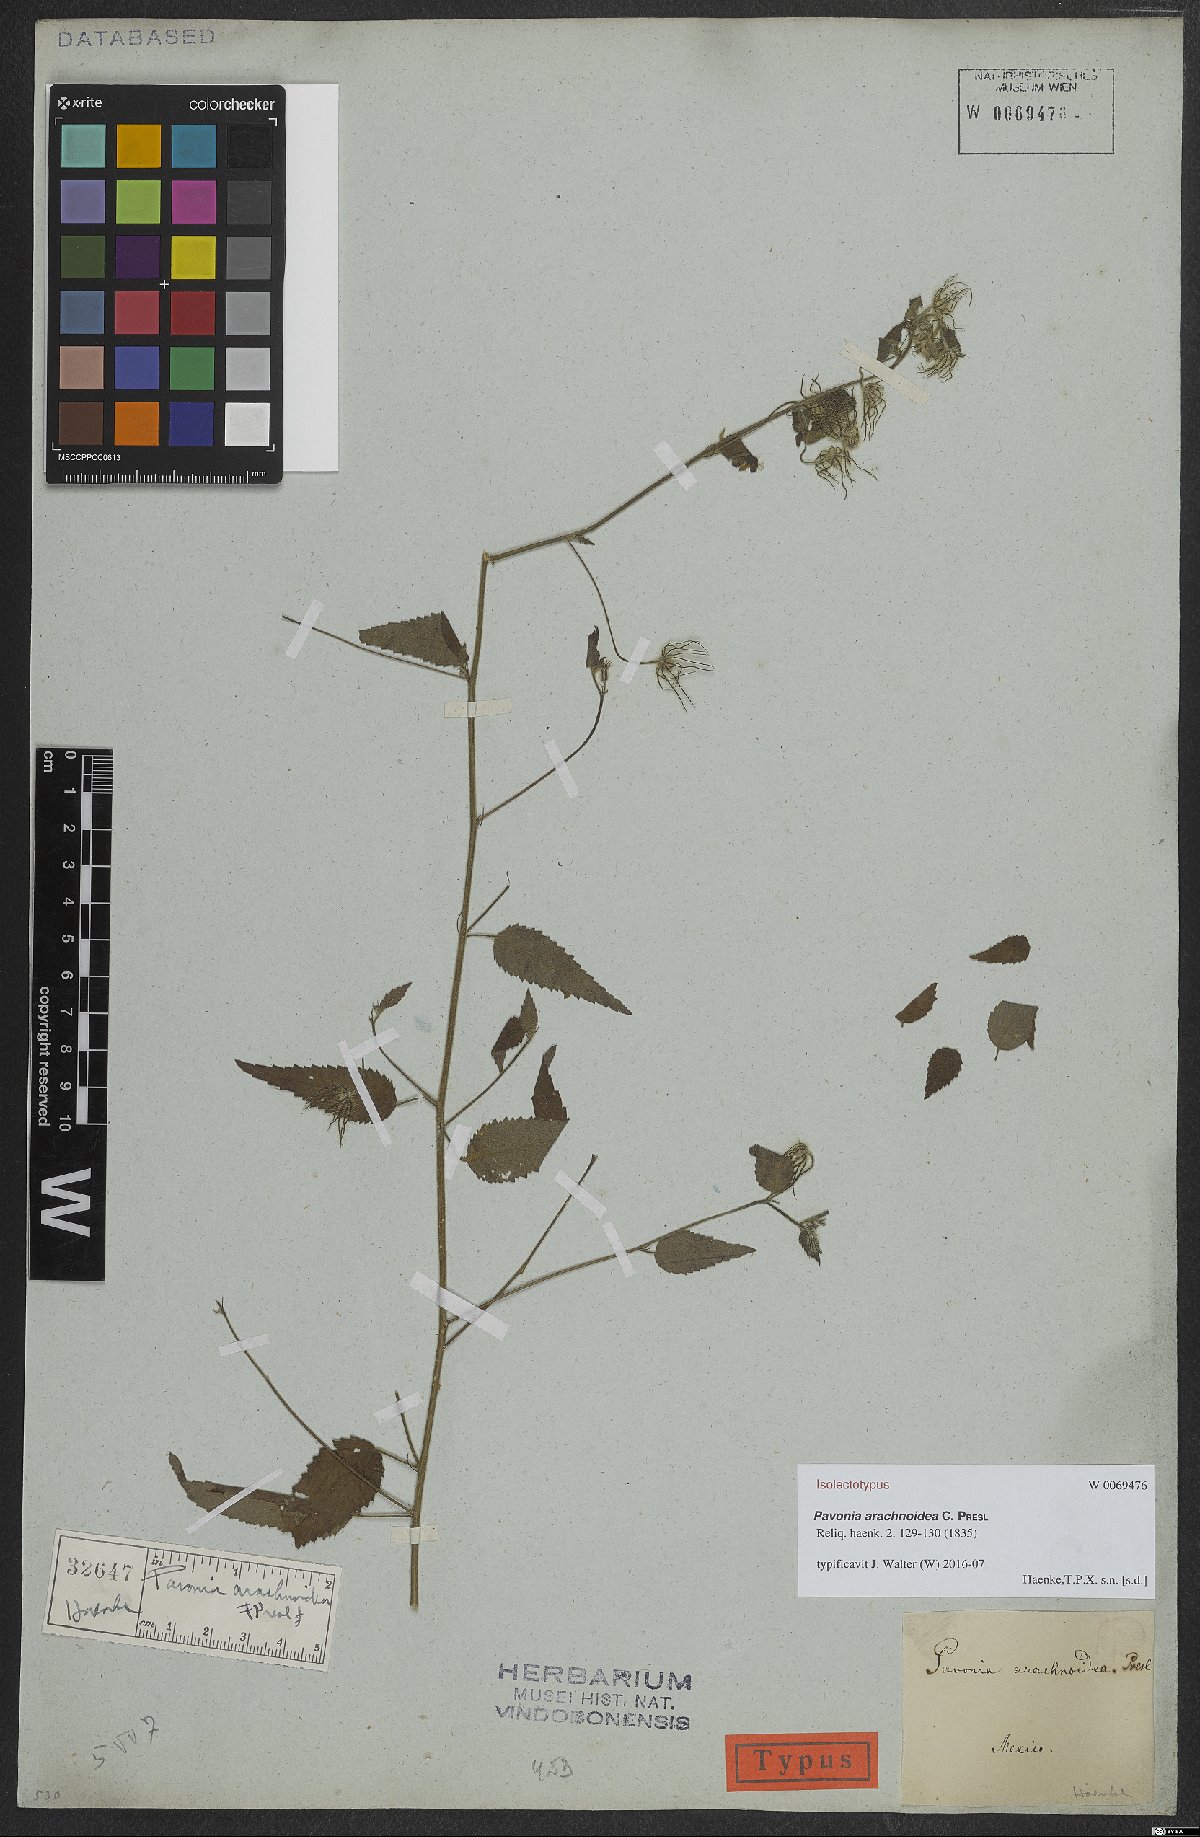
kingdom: Plantae
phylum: Tracheophyta
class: Magnoliopsida
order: Malvales
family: Malvaceae
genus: Pavonia
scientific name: Pavonia arachnoidea
